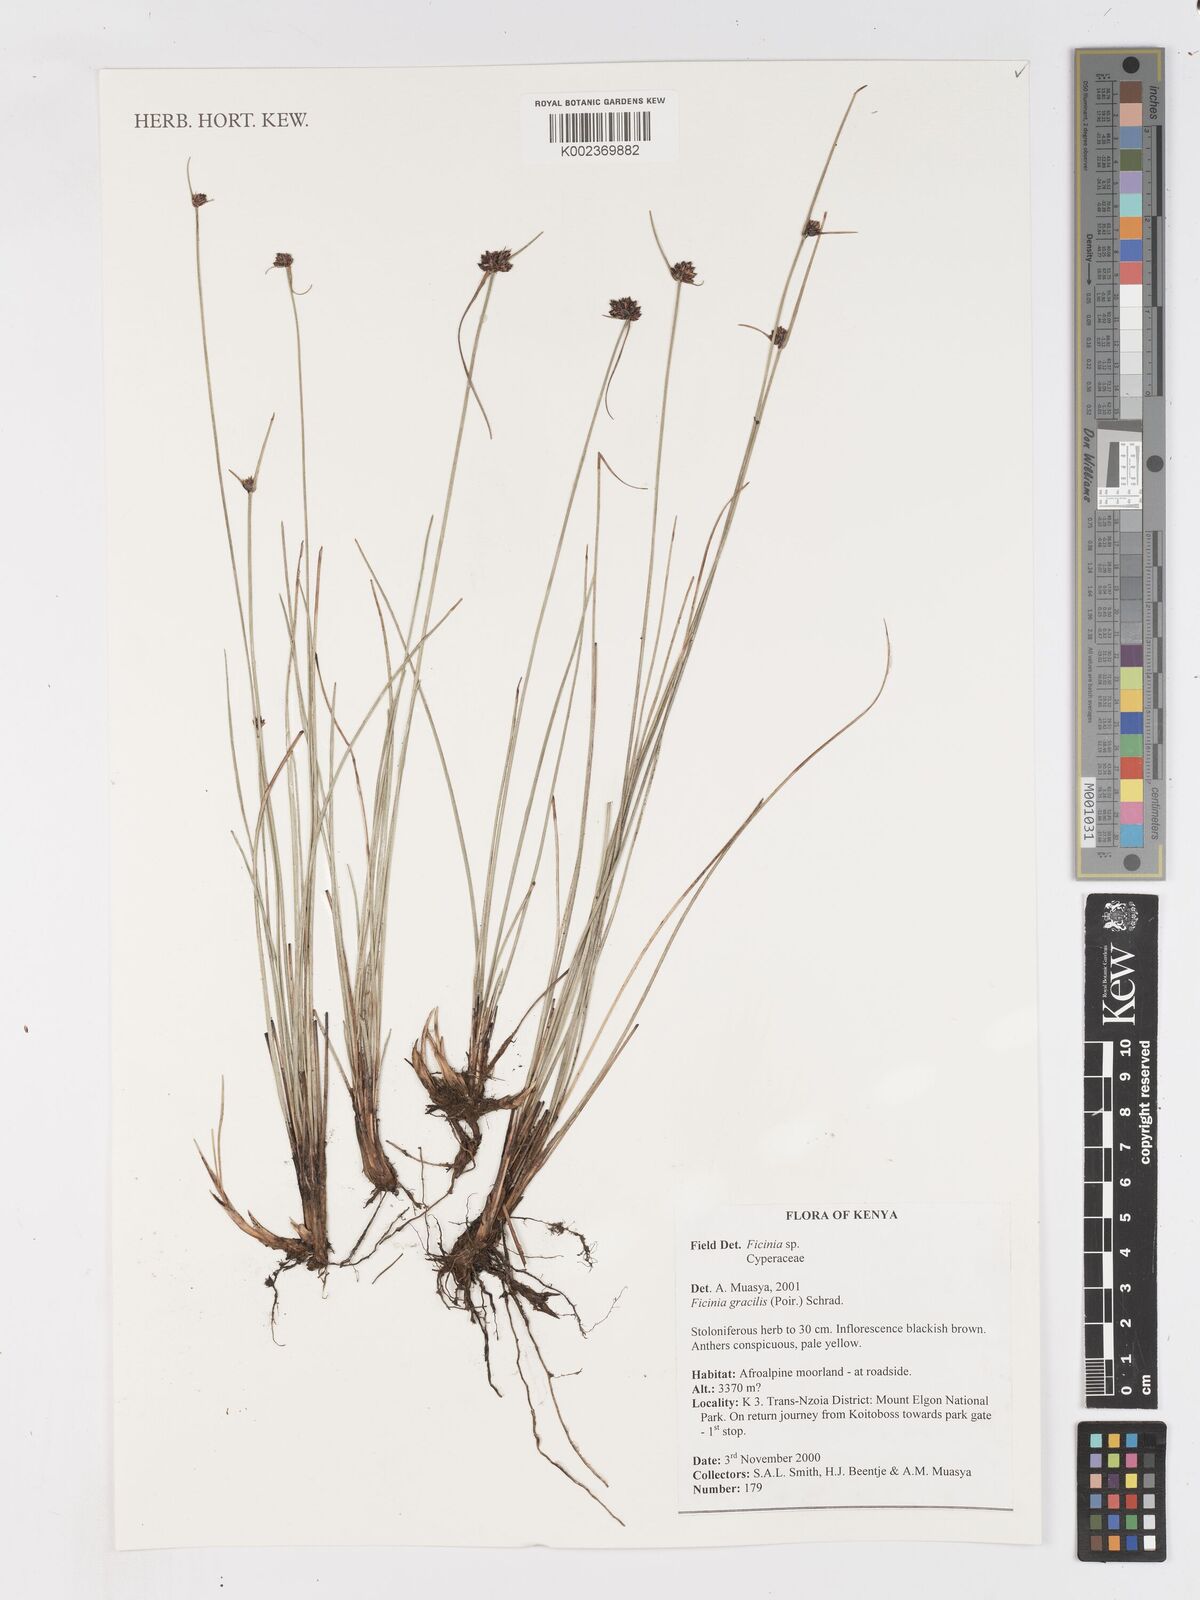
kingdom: Plantae
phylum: Tracheophyta
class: Liliopsida
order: Poales
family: Cyperaceae
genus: Ficinia
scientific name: Ficinia gracilis
